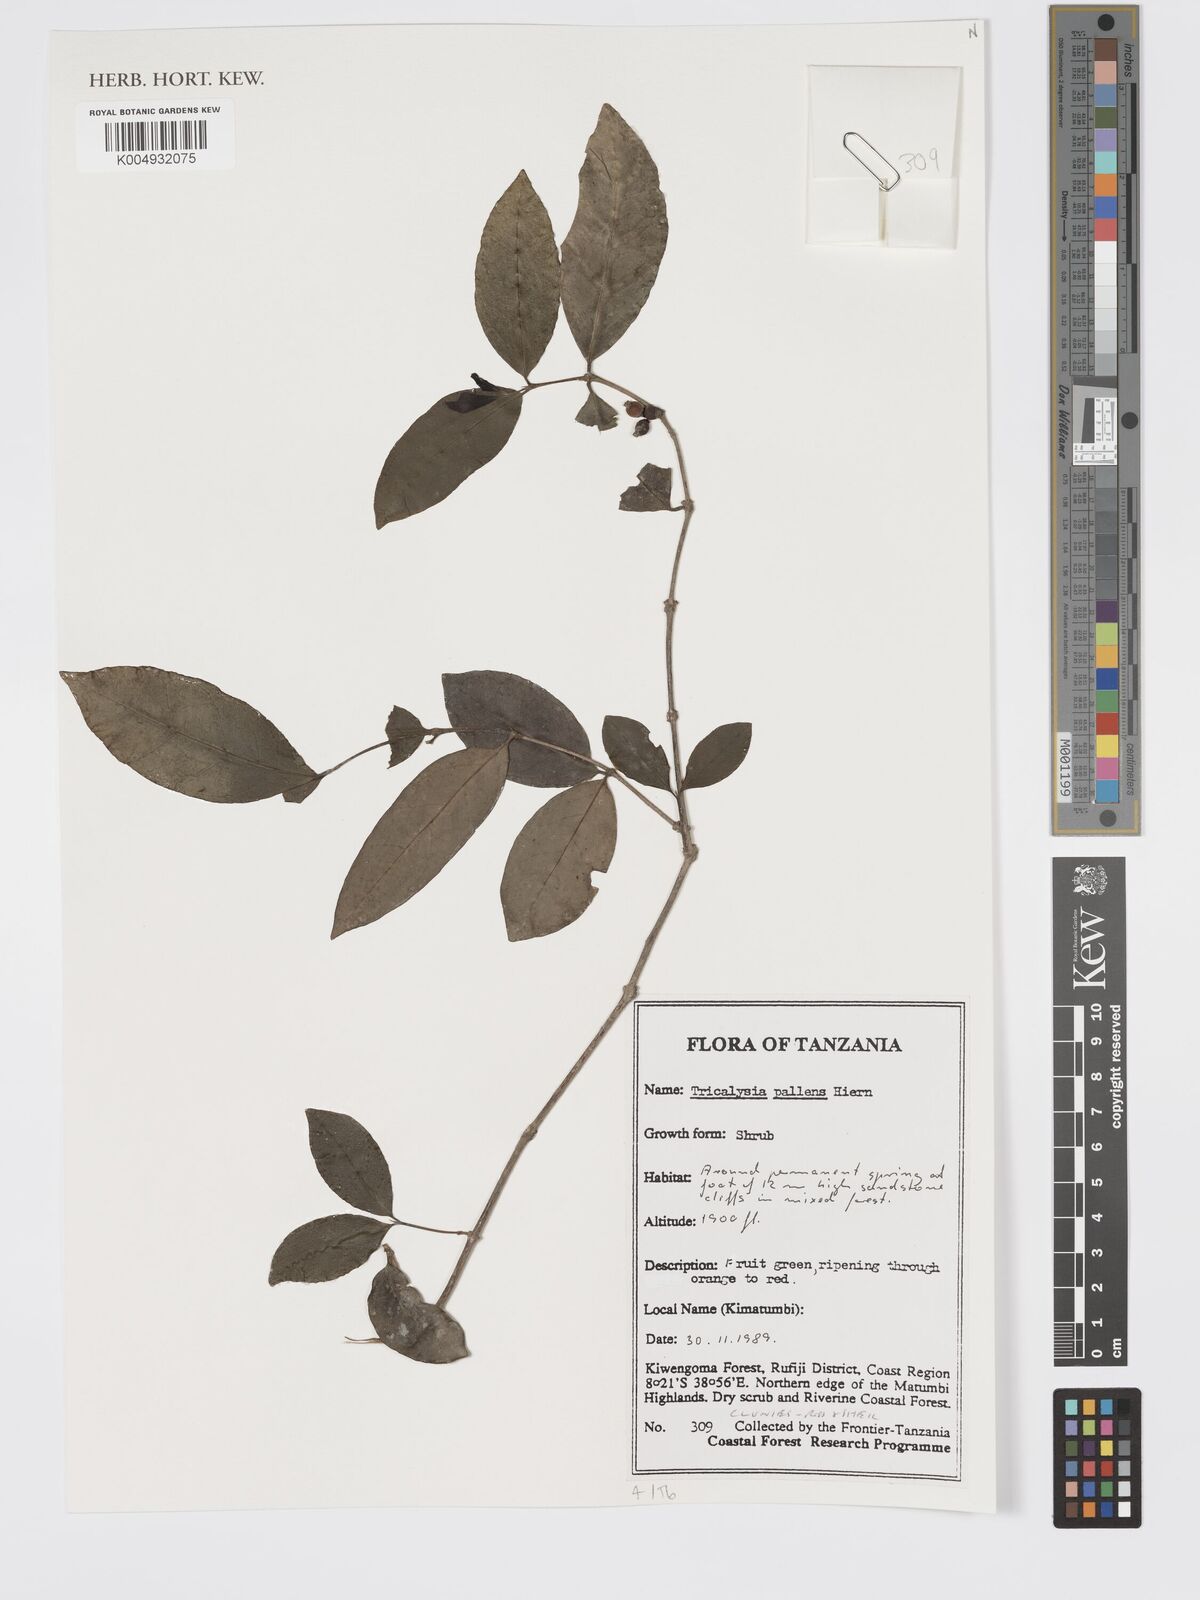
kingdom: Plantae
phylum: Tracheophyta
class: Magnoliopsida
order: Gentianales
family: Rubiaceae
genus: Tricalysia
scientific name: Tricalysia pallens
